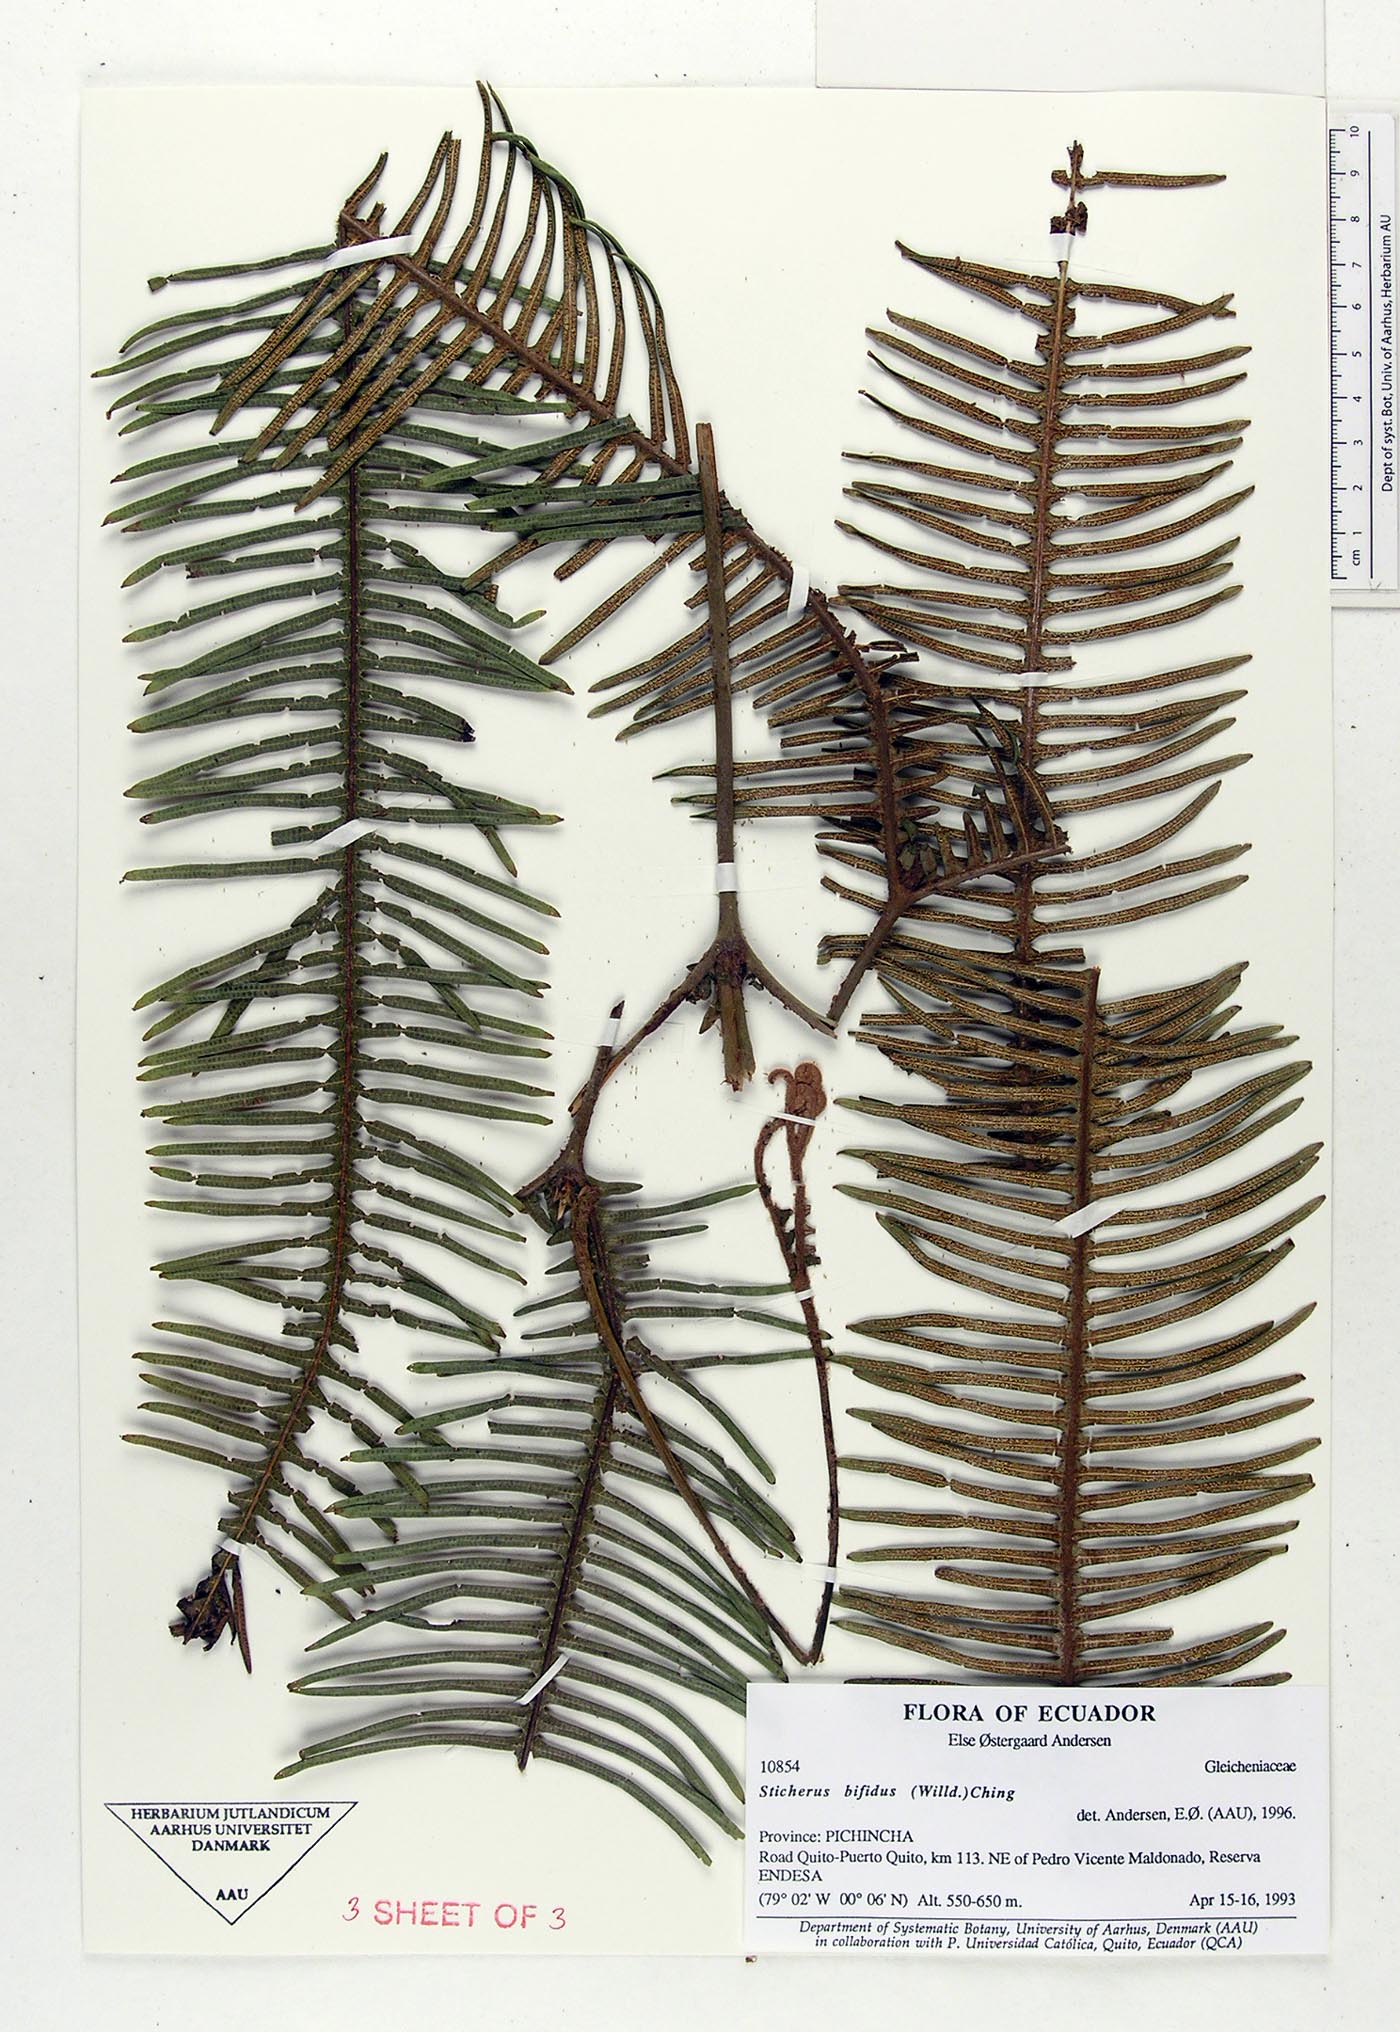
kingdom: Plantae
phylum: Tracheophyta
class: Polypodiopsida
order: Gleicheniales
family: Gleicheniaceae
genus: Sticherus
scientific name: Sticherus bifidus
